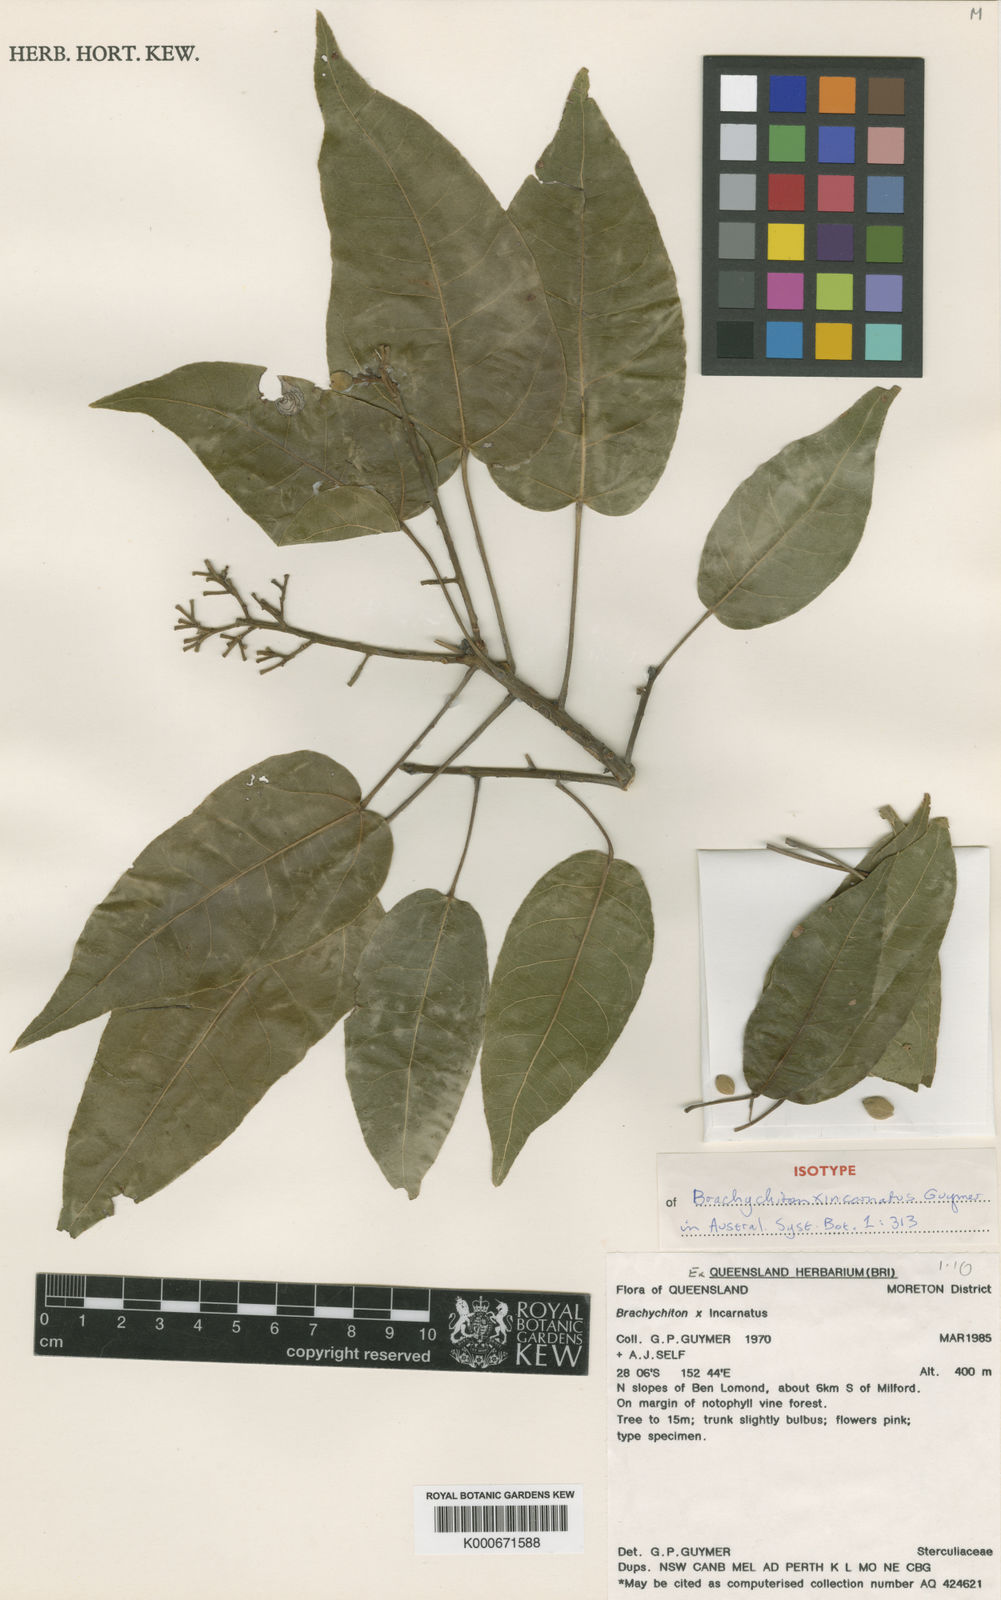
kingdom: Plantae
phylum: Tracheophyta
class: Magnoliopsida
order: Malvales
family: Malvaceae
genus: Brachychiton
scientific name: Brachychiton incarnatus
